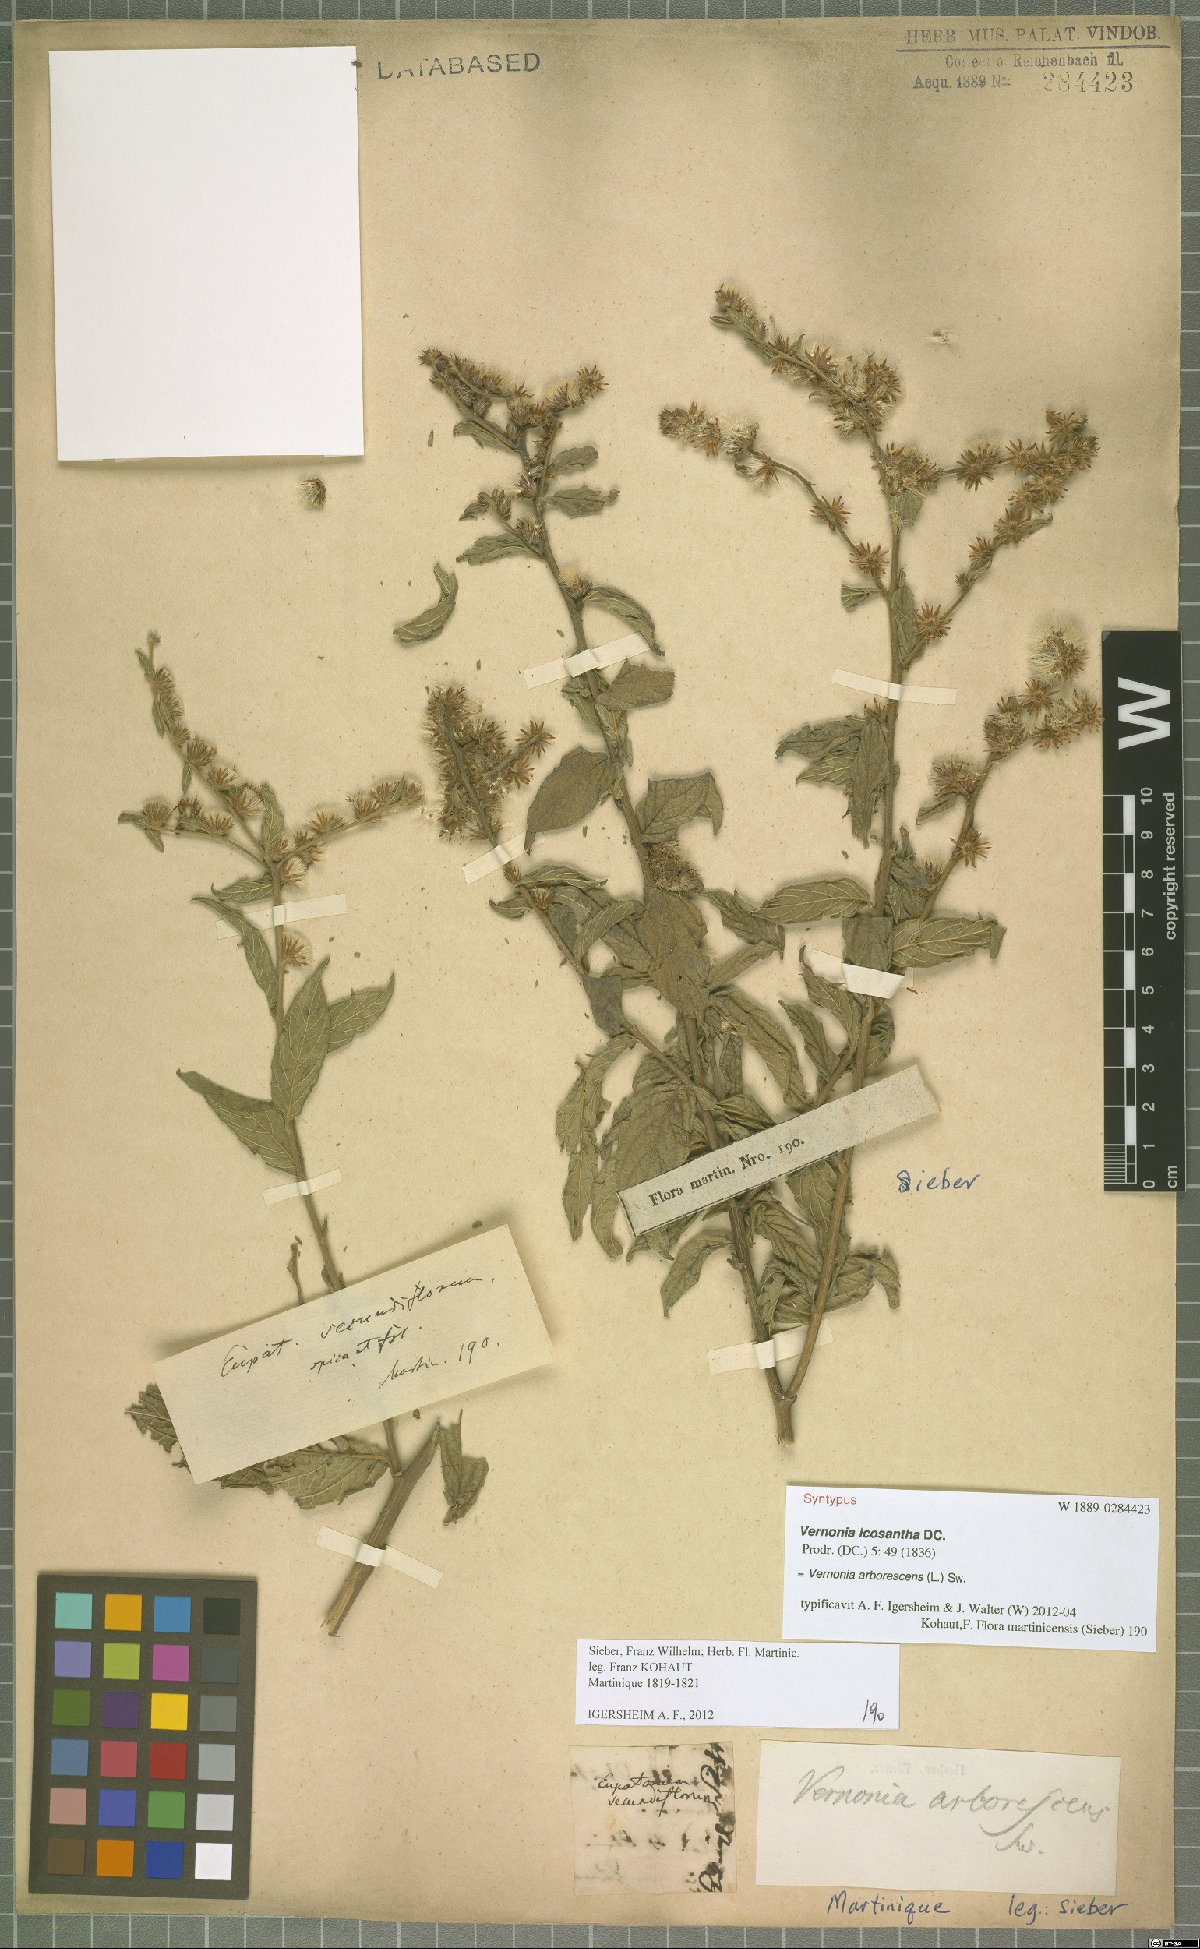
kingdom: Plantae
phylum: Tracheophyta
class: Magnoliopsida
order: Asterales
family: Asteraceae
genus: Lepidaploa
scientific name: Lepidaploa arborescens
